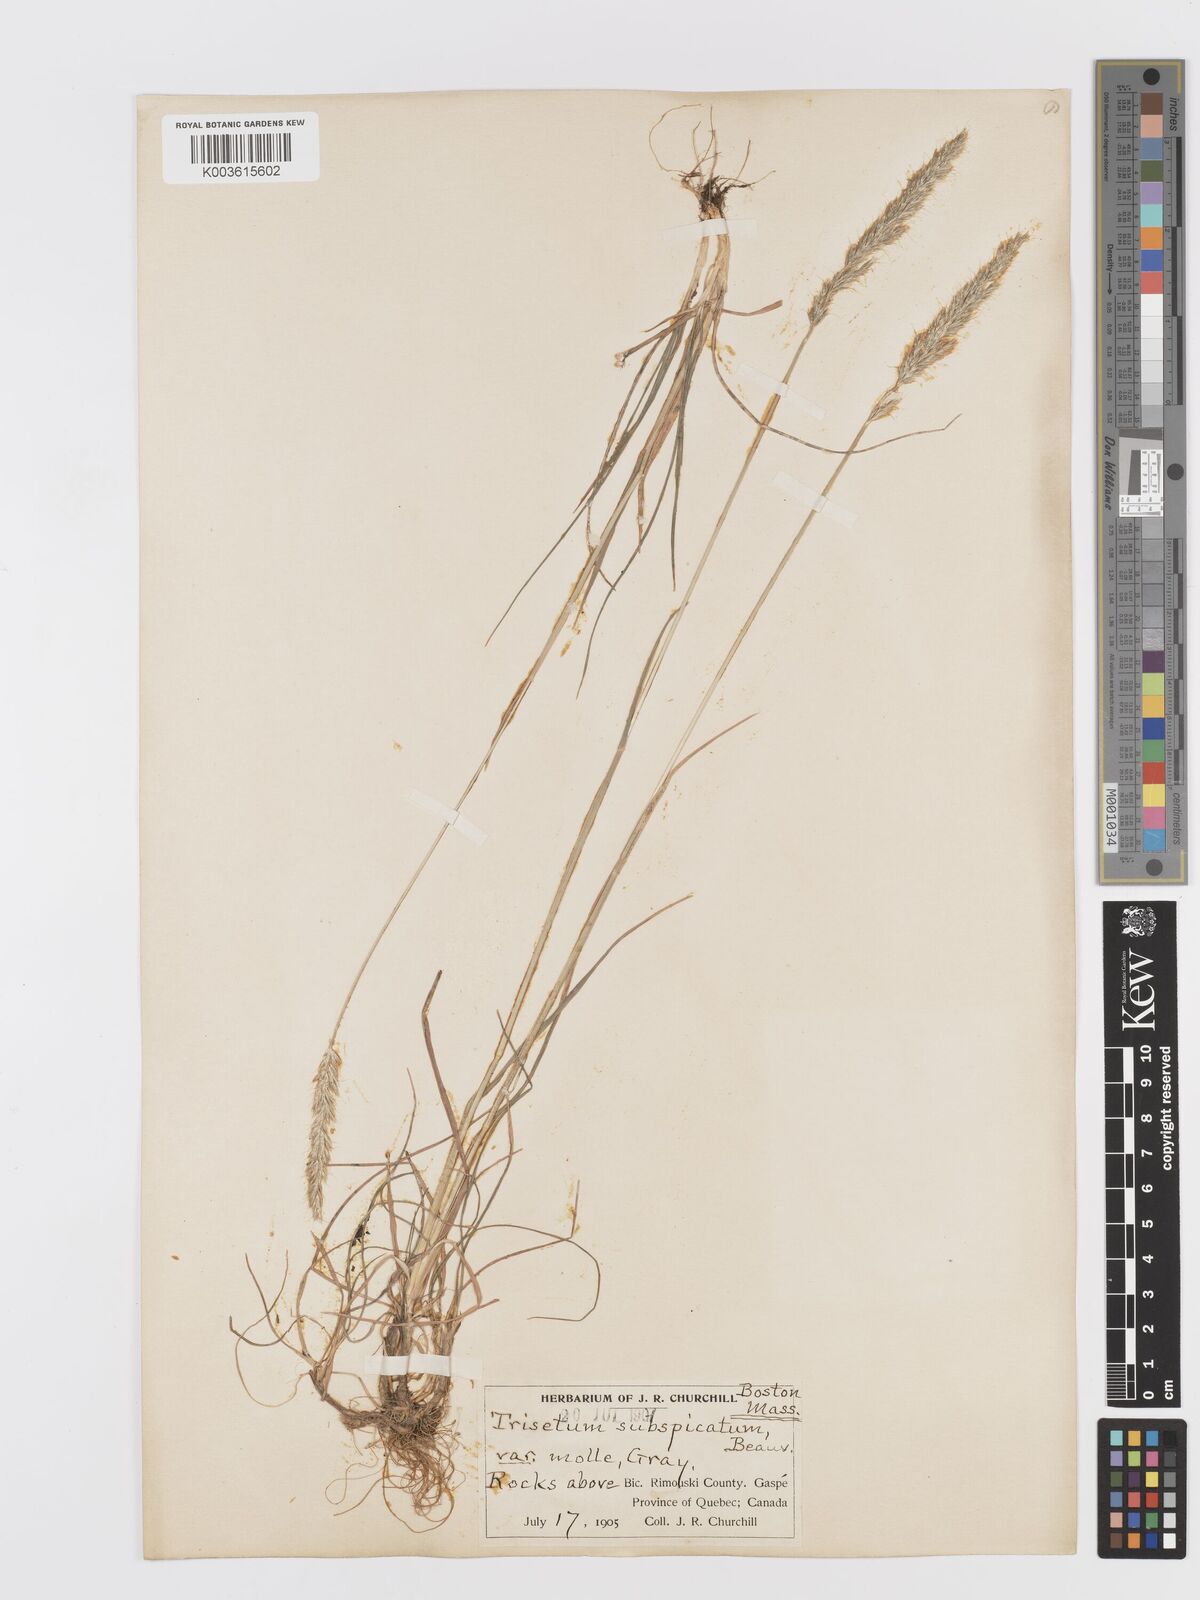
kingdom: Plantae
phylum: Tracheophyta
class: Liliopsida
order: Poales
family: Poaceae
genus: Koeleria
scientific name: Koeleria spicata
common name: Mountain trisetum
